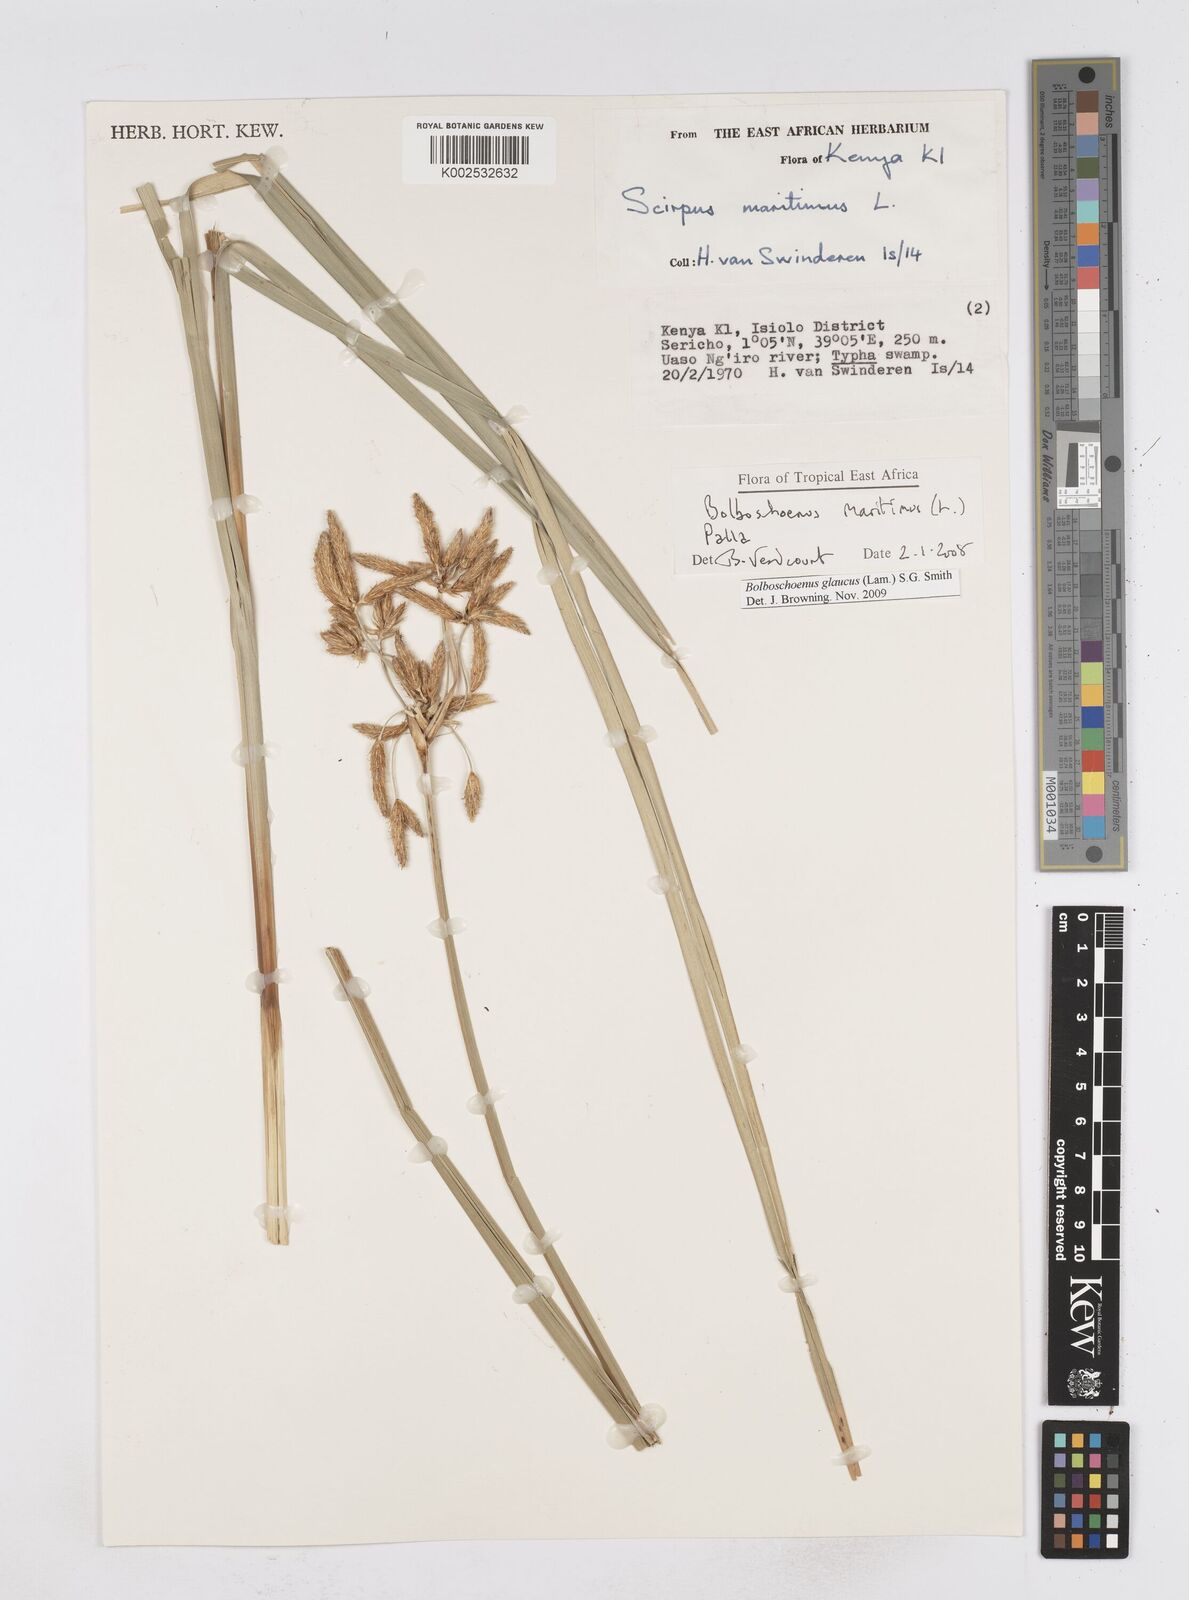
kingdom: Plantae
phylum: Tracheophyta
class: Liliopsida
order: Poales
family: Cyperaceae
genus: Bolboschoenus
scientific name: Bolboschoenus glaucus
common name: Tuberous bulrush
